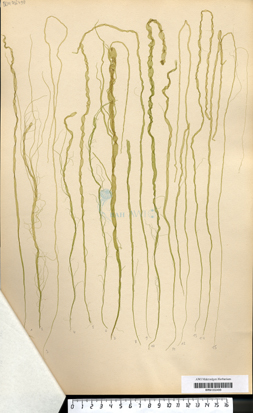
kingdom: Plantae
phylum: Chlorophyta
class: Ulvophyceae
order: Ulvales
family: Ulvaceae
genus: Ulva
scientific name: Ulva intestinalis
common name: Gut weed
